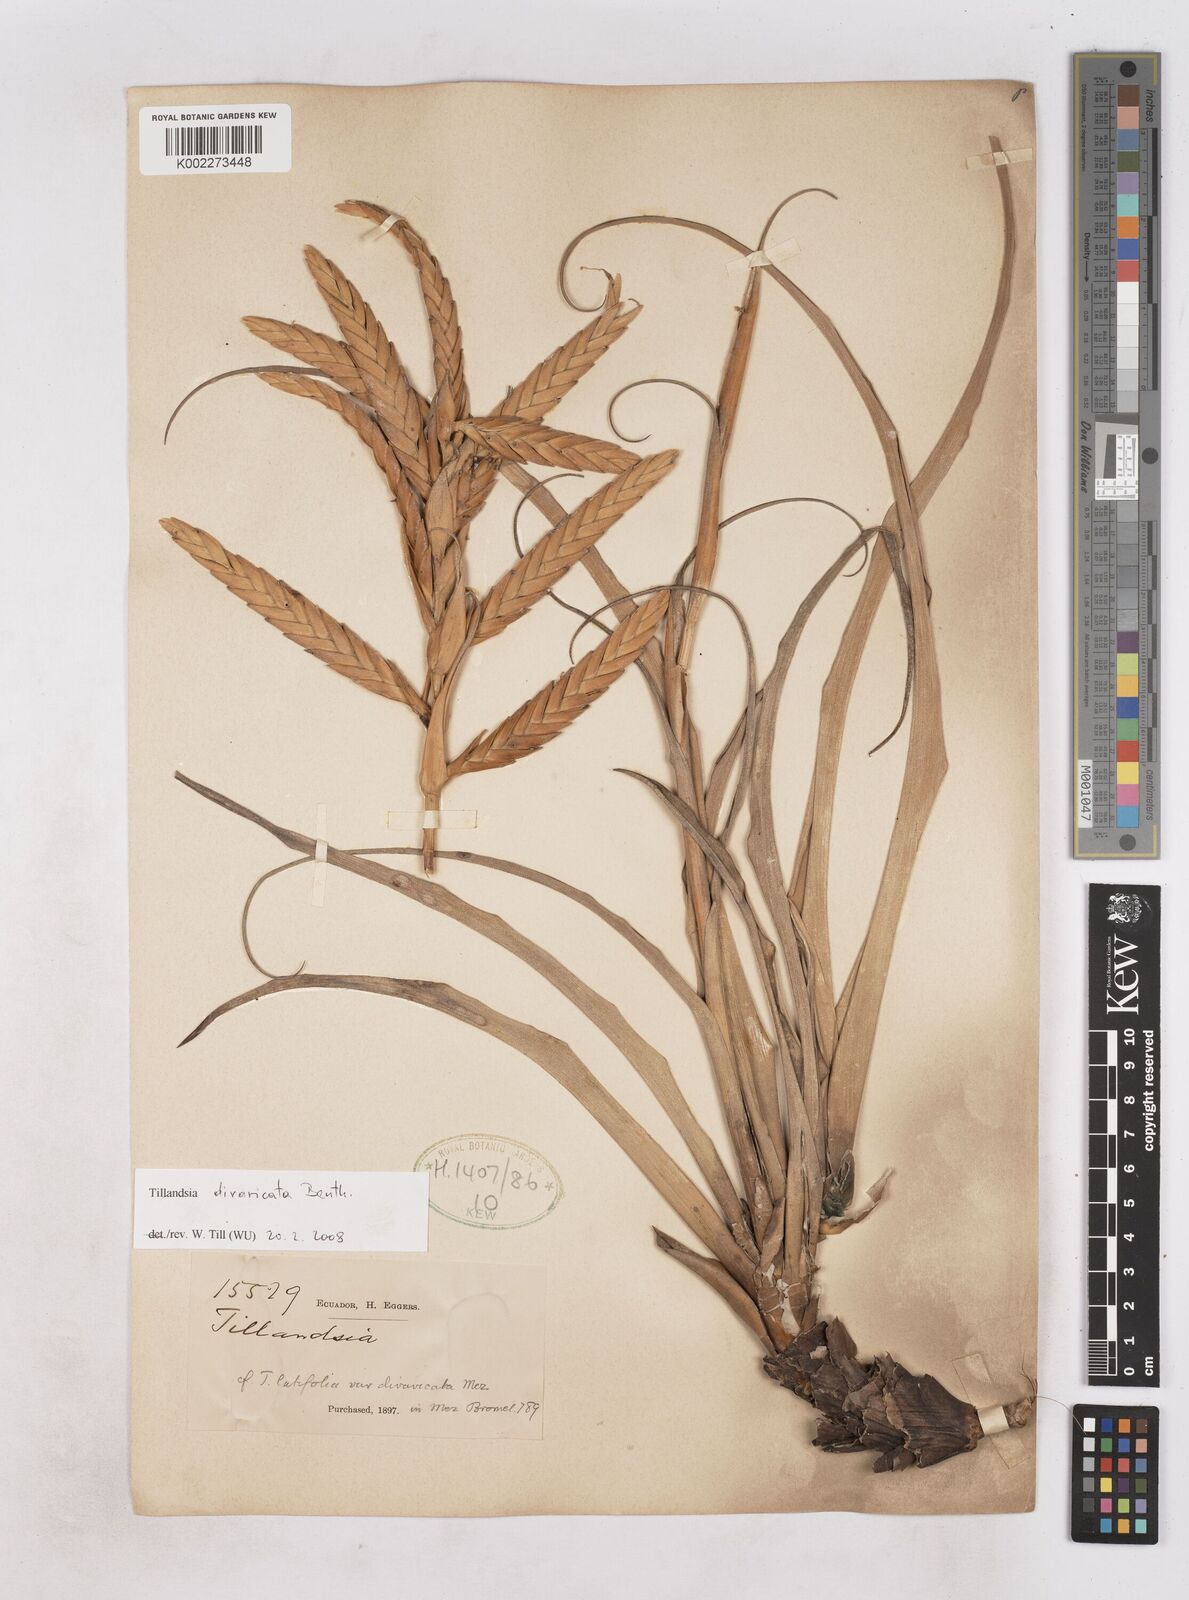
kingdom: Plantae
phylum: Tracheophyta
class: Liliopsida
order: Poales
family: Bromeliaceae
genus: Tillandsia
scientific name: Tillandsia latifolia
